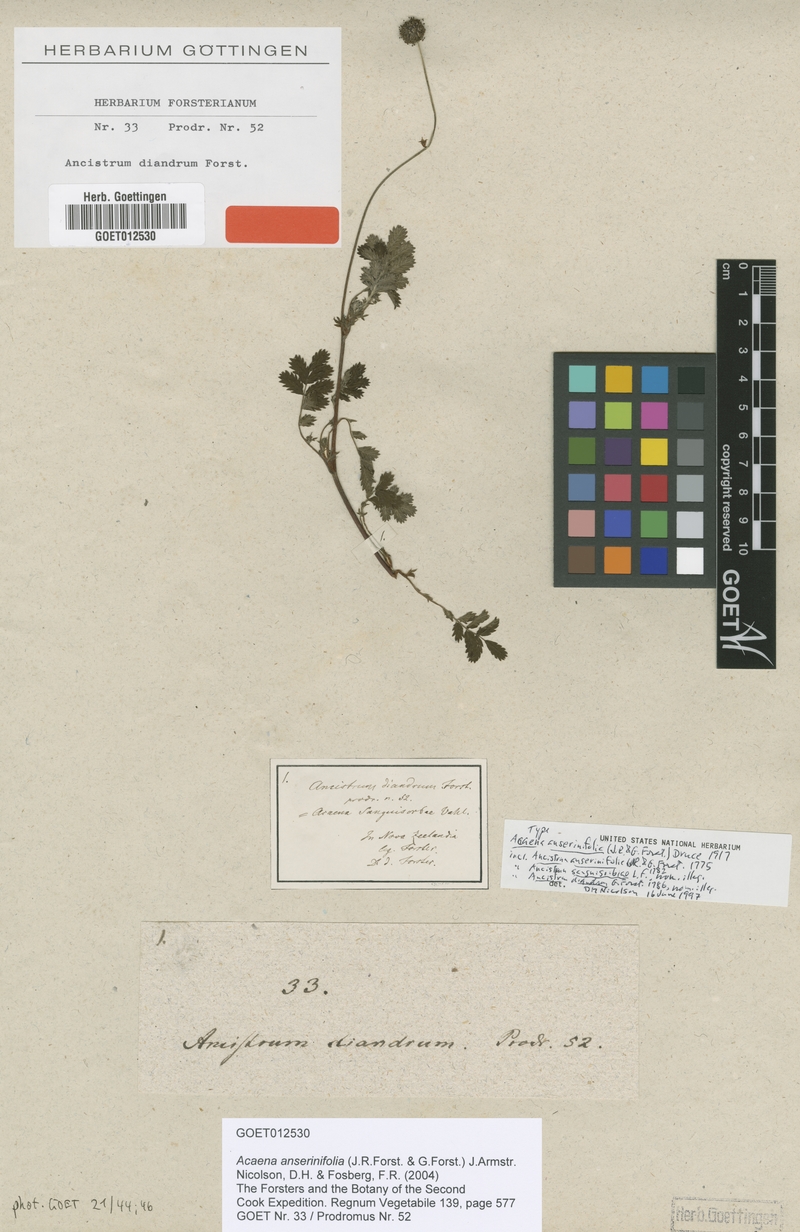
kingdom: Plantae
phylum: Tracheophyta
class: Magnoliopsida
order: Rosales
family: Rosaceae
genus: Acaena
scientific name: Acaena anserinifolia
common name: Bronze pirri-pirri-bur
